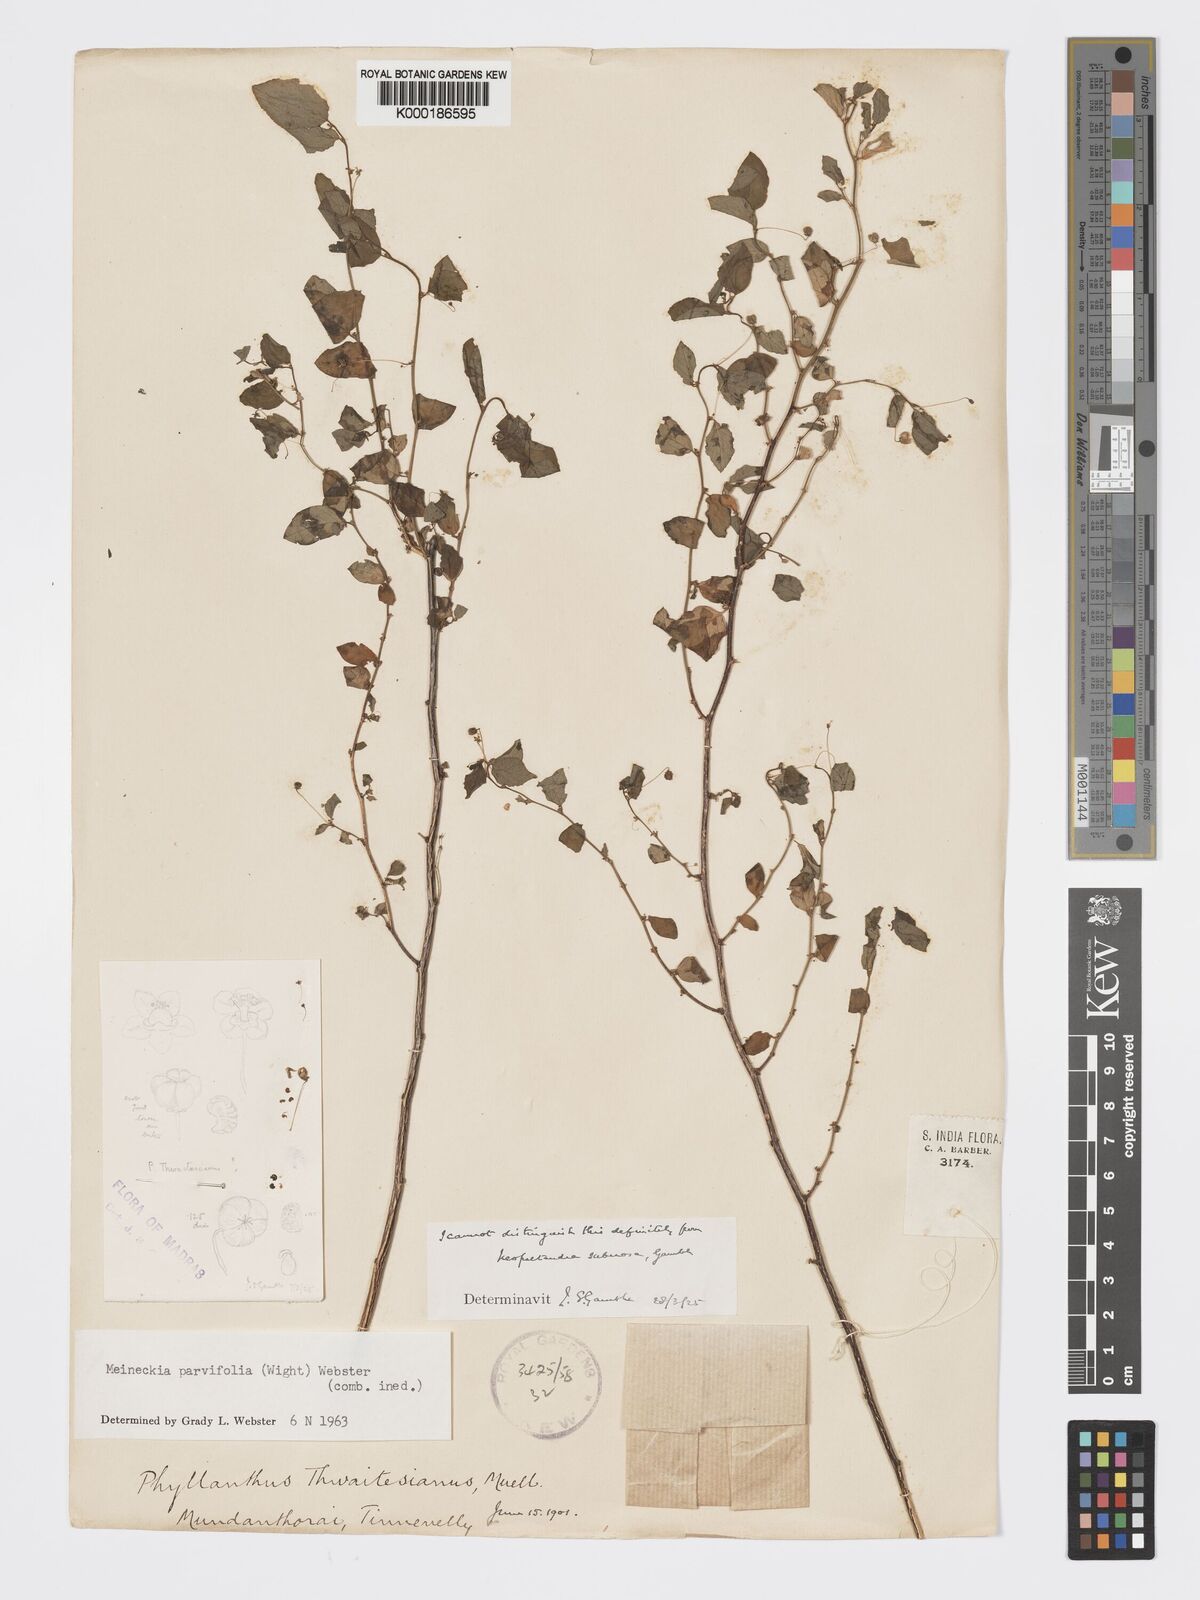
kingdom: Plantae
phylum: Tracheophyta
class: Magnoliopsida
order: Malpighiales
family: Phyllanthaceae
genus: Meineckia
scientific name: Meineckia parvifolia
